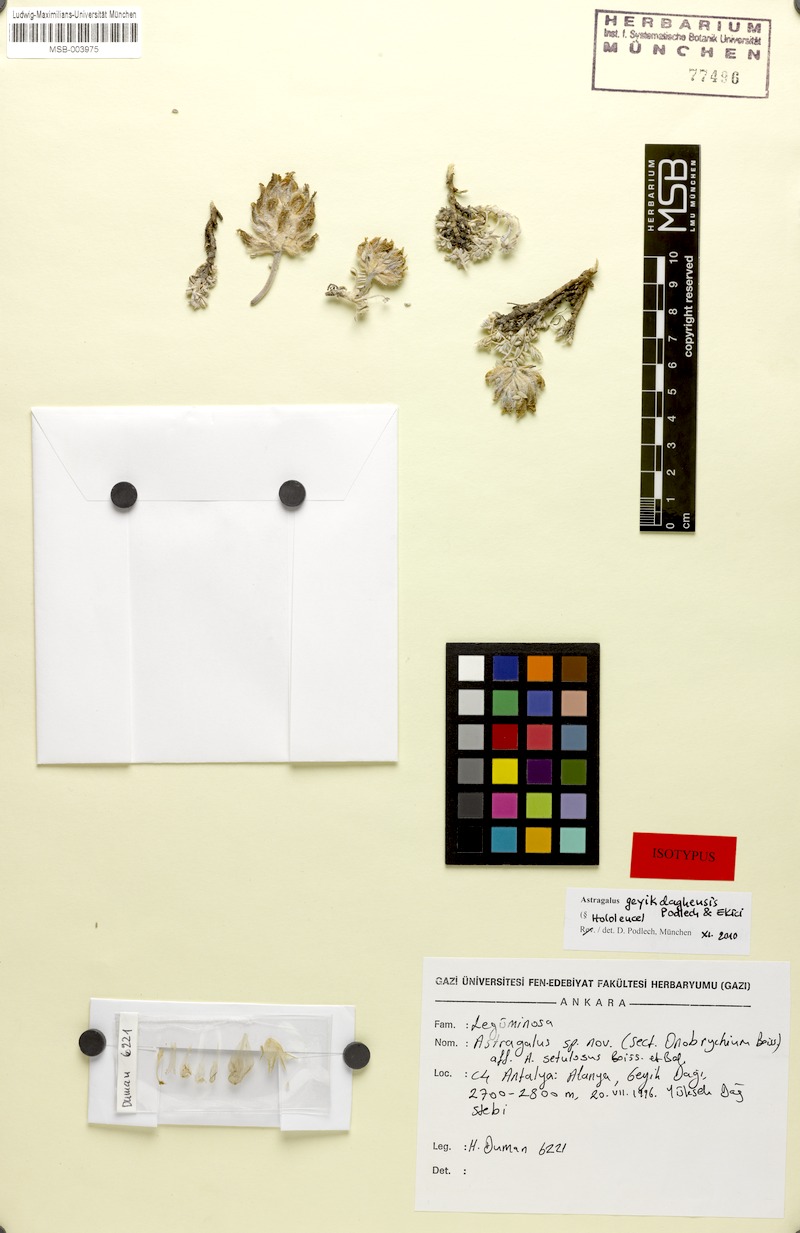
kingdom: Plantae
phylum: Tracheophyta
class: Magnoliopsida
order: Fabales
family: Fabaceae
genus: Astragalus
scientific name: Astragalus geyikdaghensis
